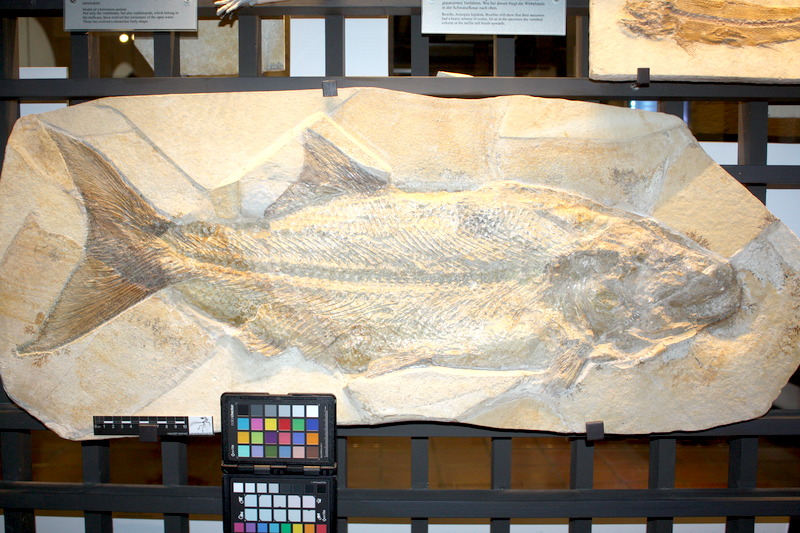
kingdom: Animalia
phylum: Chordata
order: Amiiformes
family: Ionoscopidae
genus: Ionoscopus
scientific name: Ionoscopus cyprinoides
